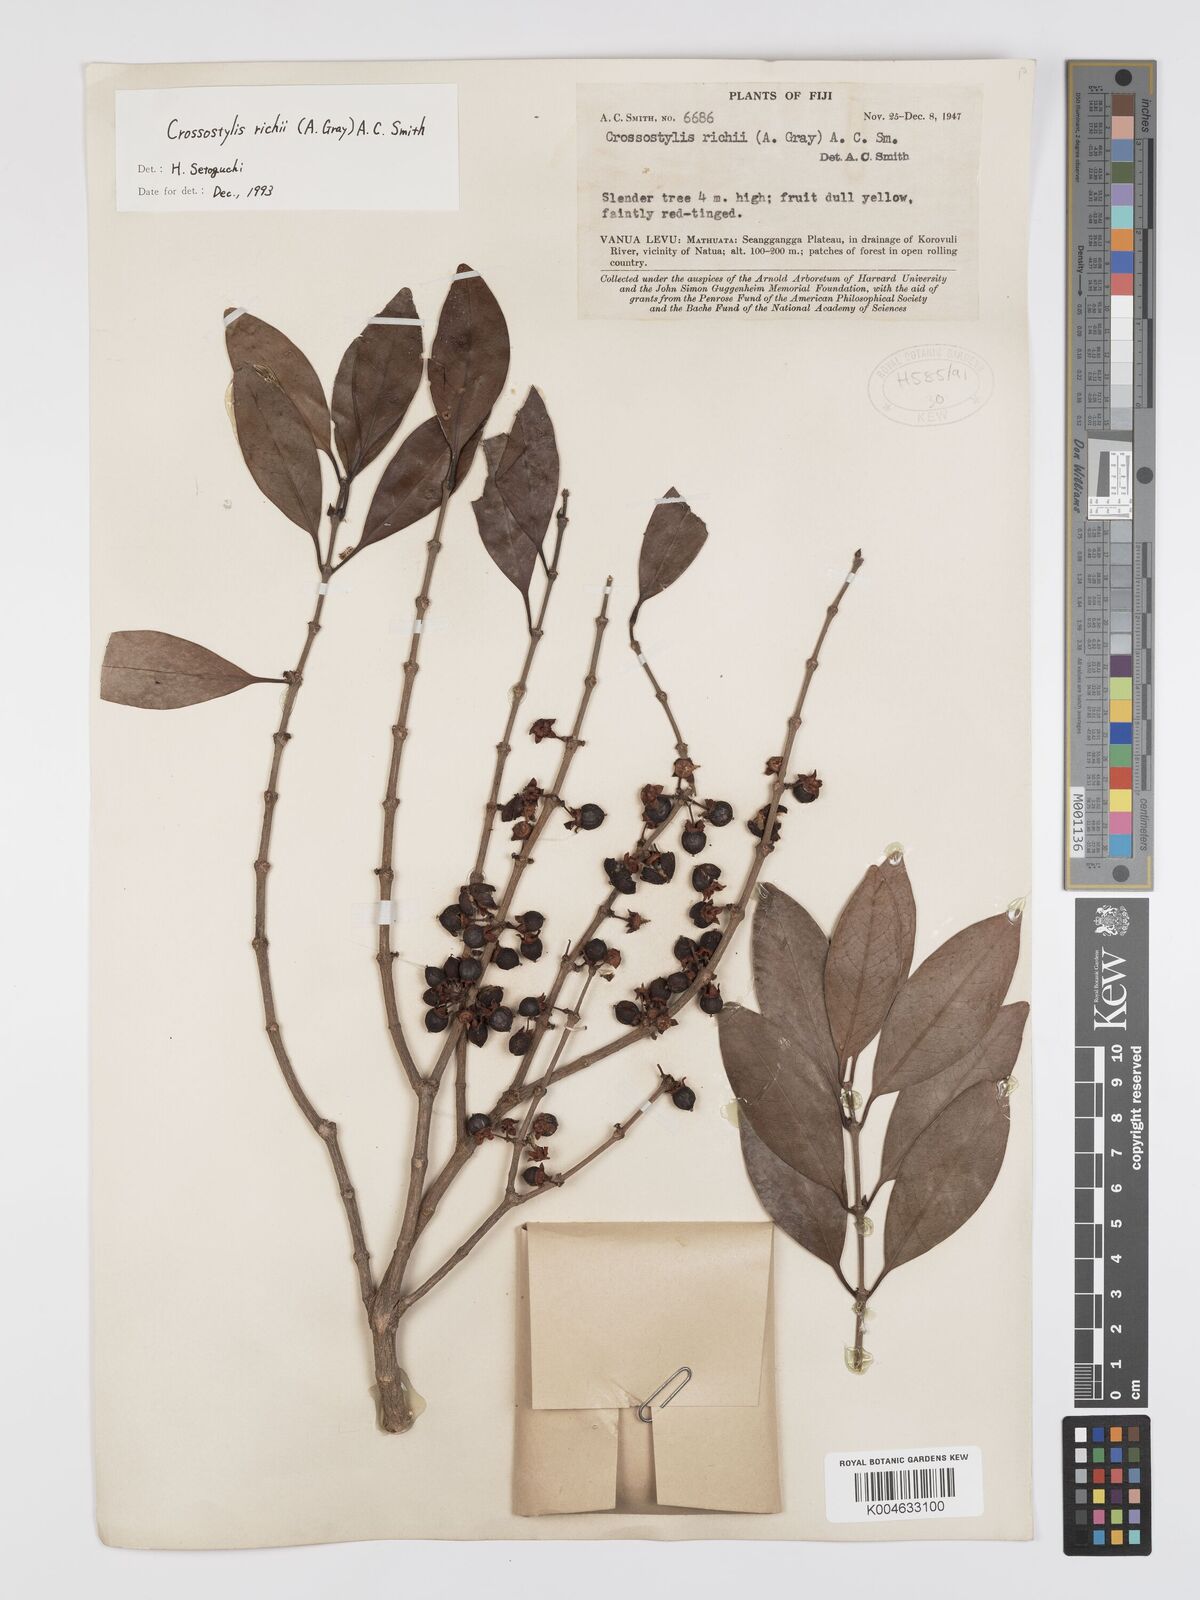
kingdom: Plantae
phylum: Tracheophyta
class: Magnoliopsida
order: Malpighiales
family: Rhizophoraceae
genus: Crossostylis
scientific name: Crossostylis richii
